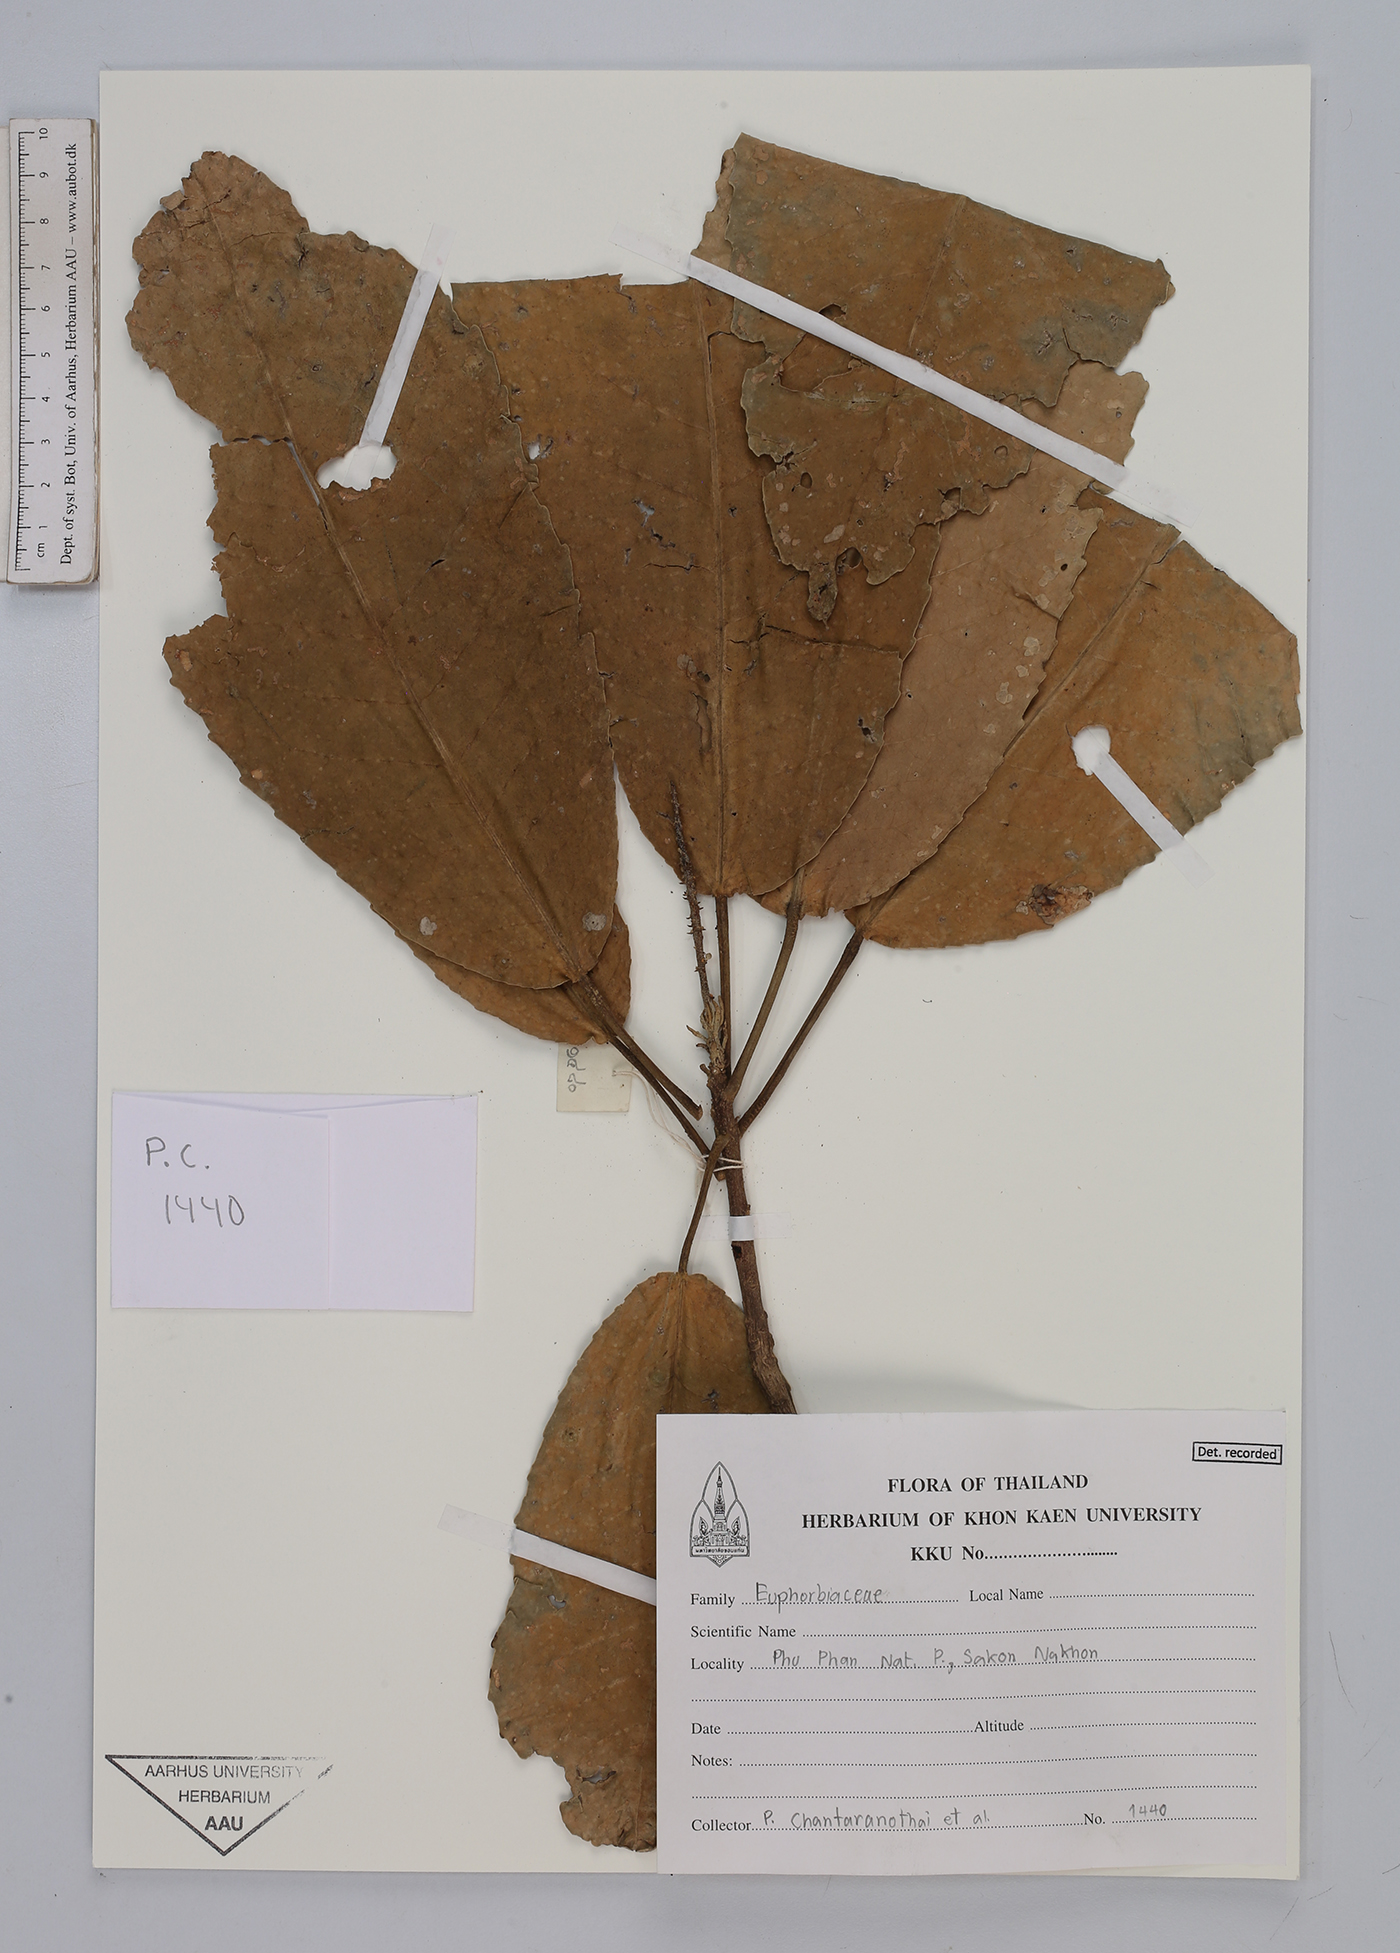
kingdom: Plantae
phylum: Tracheophyta
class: Magnoliopsida
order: Malpighiales
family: Euphorbiaceae
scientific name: Euphorbiaceae
